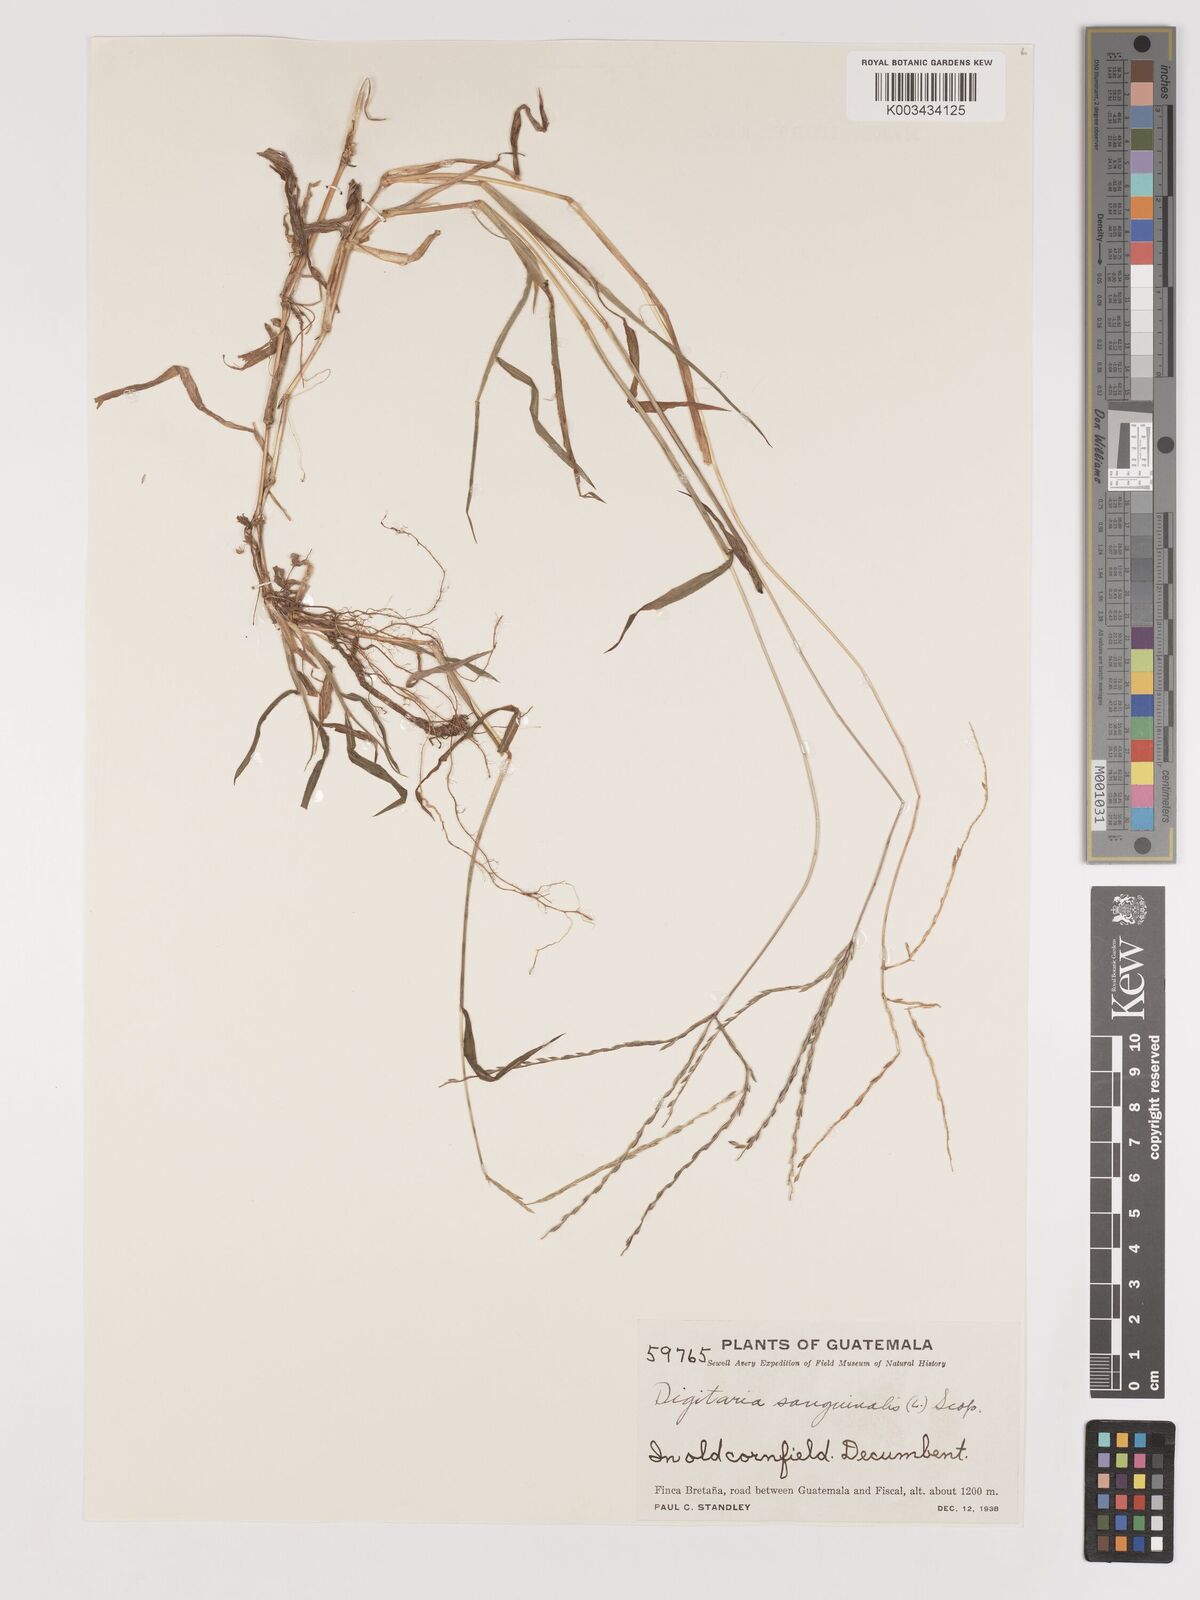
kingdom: Plantae
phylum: Tracheophyta
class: Liliopsida
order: Poales
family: Poaceae
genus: Digitaria
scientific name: Digitaria ciliaris
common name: Tropical finger-grass
